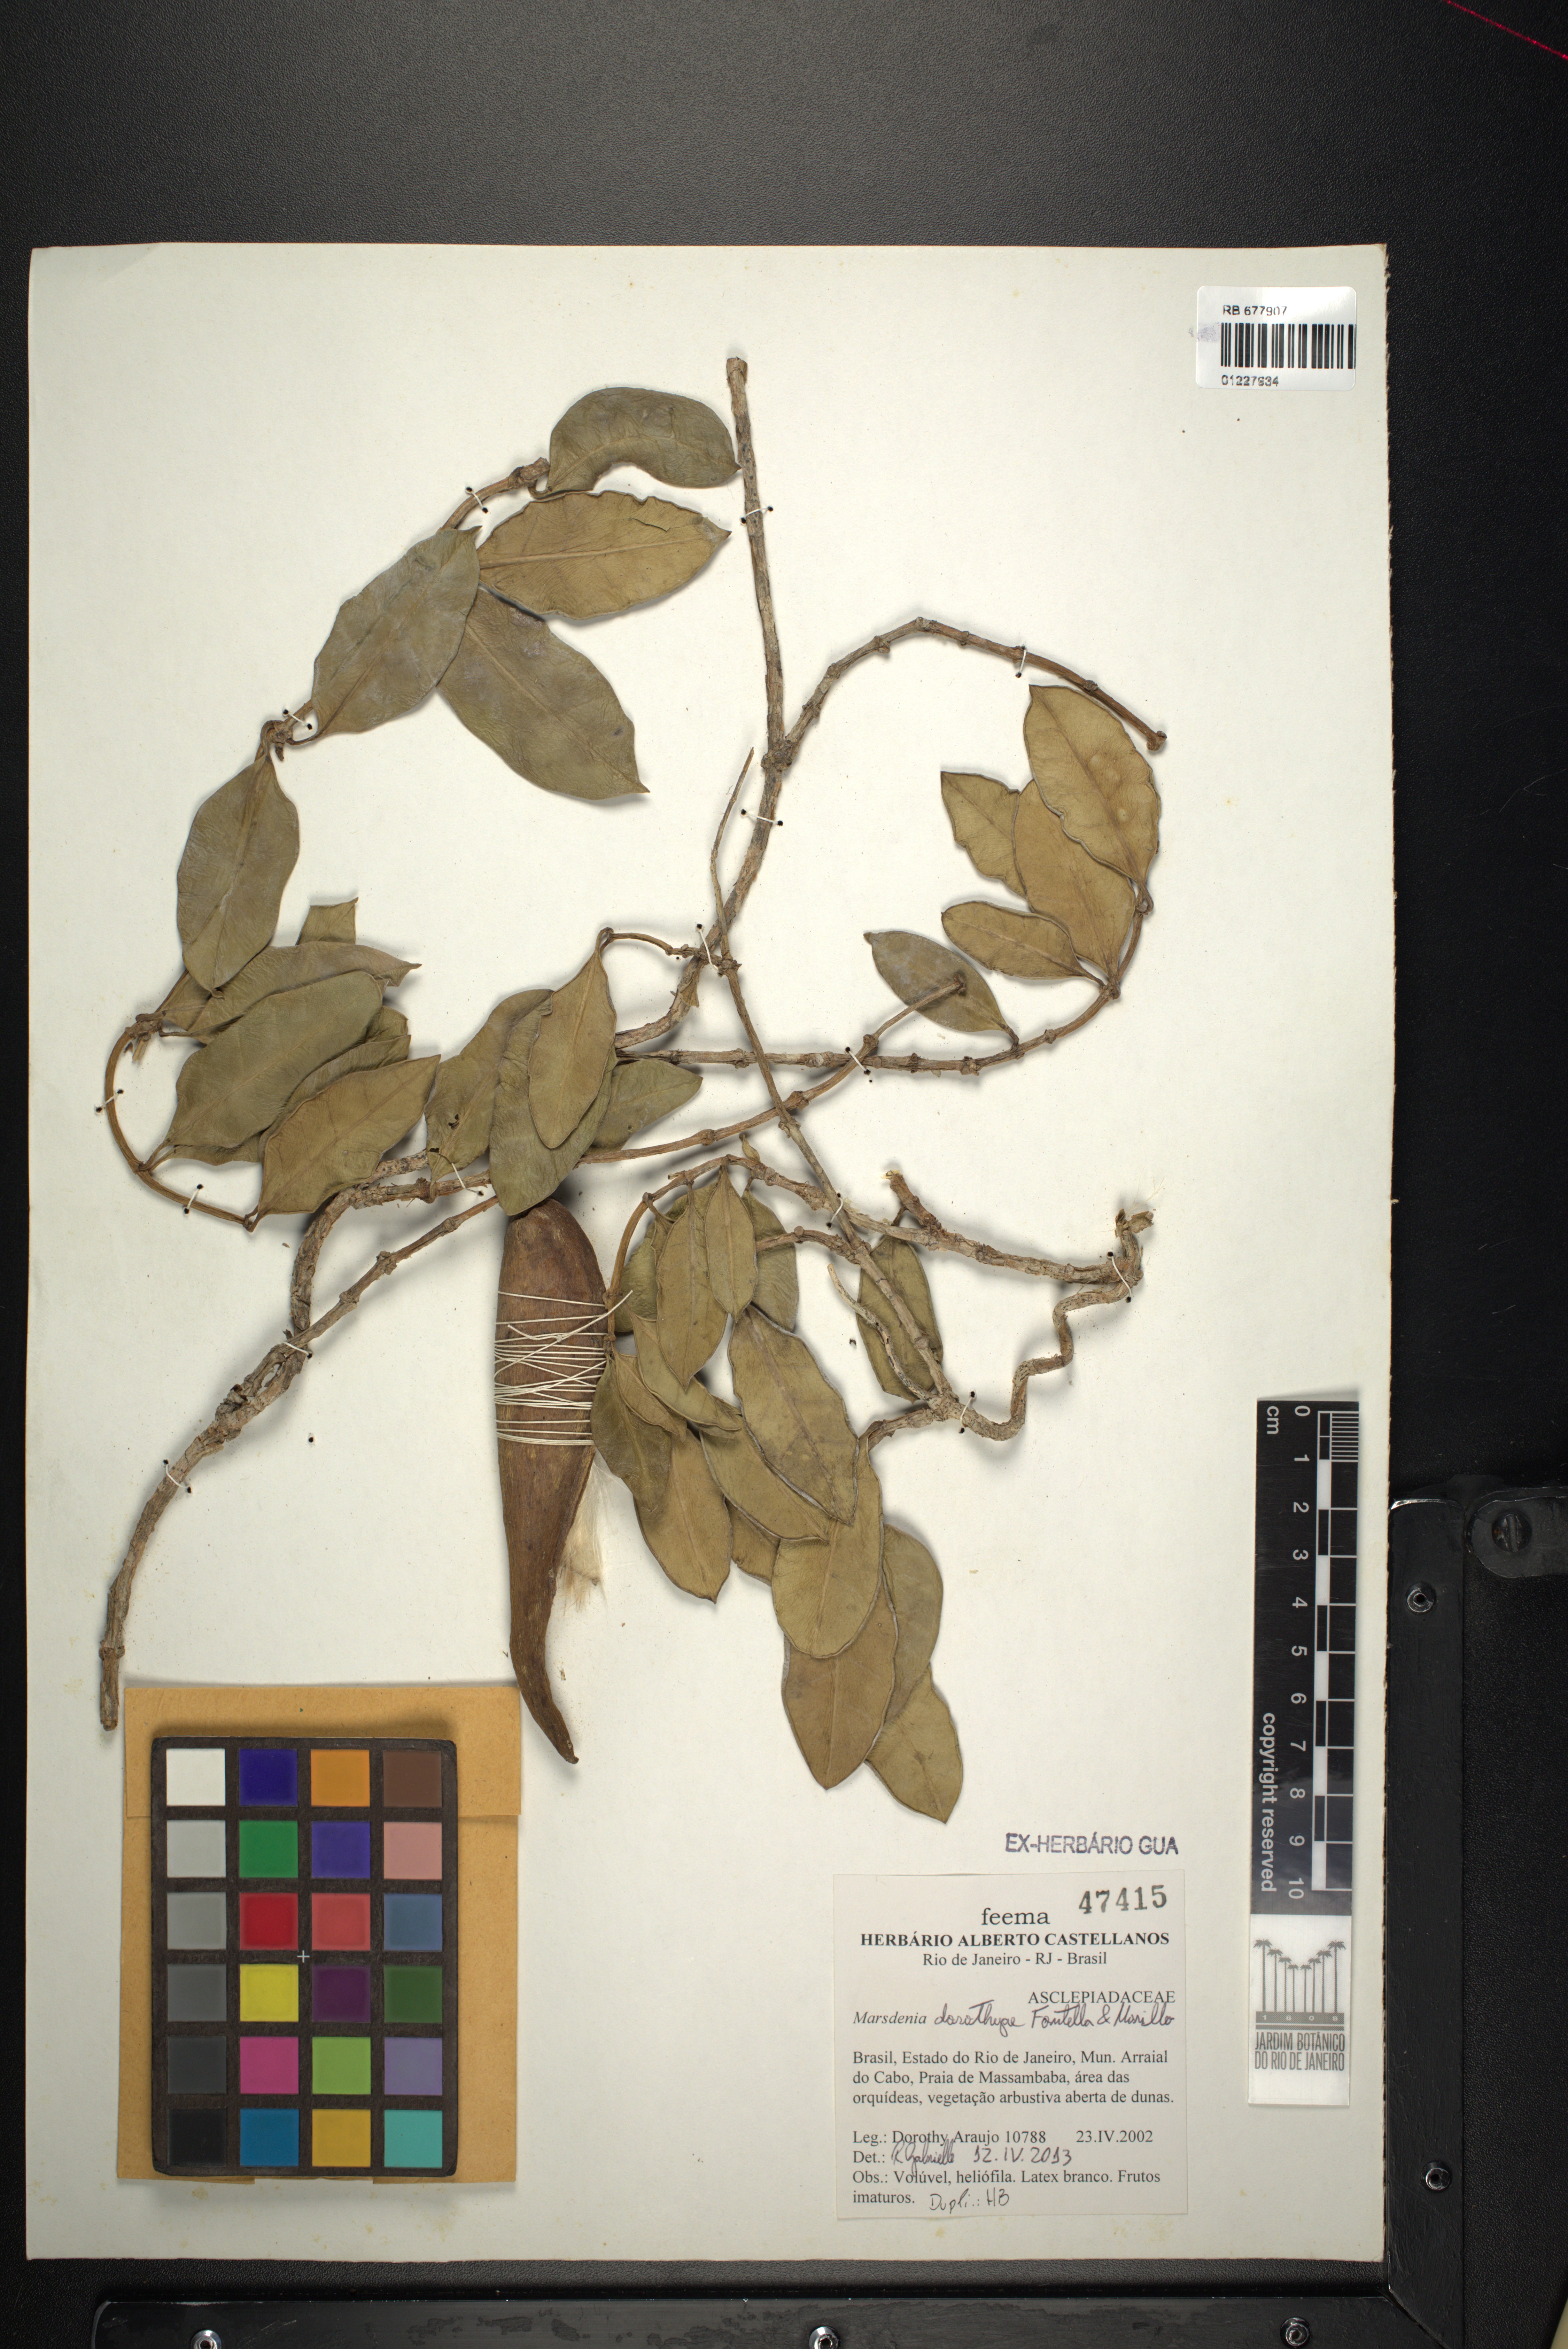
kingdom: Plantae
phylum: Tracheophyta
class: Magnoliopsida
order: Gentianales
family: Apocynaceae
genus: Ruehssia
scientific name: Ruehssia dorothyae
